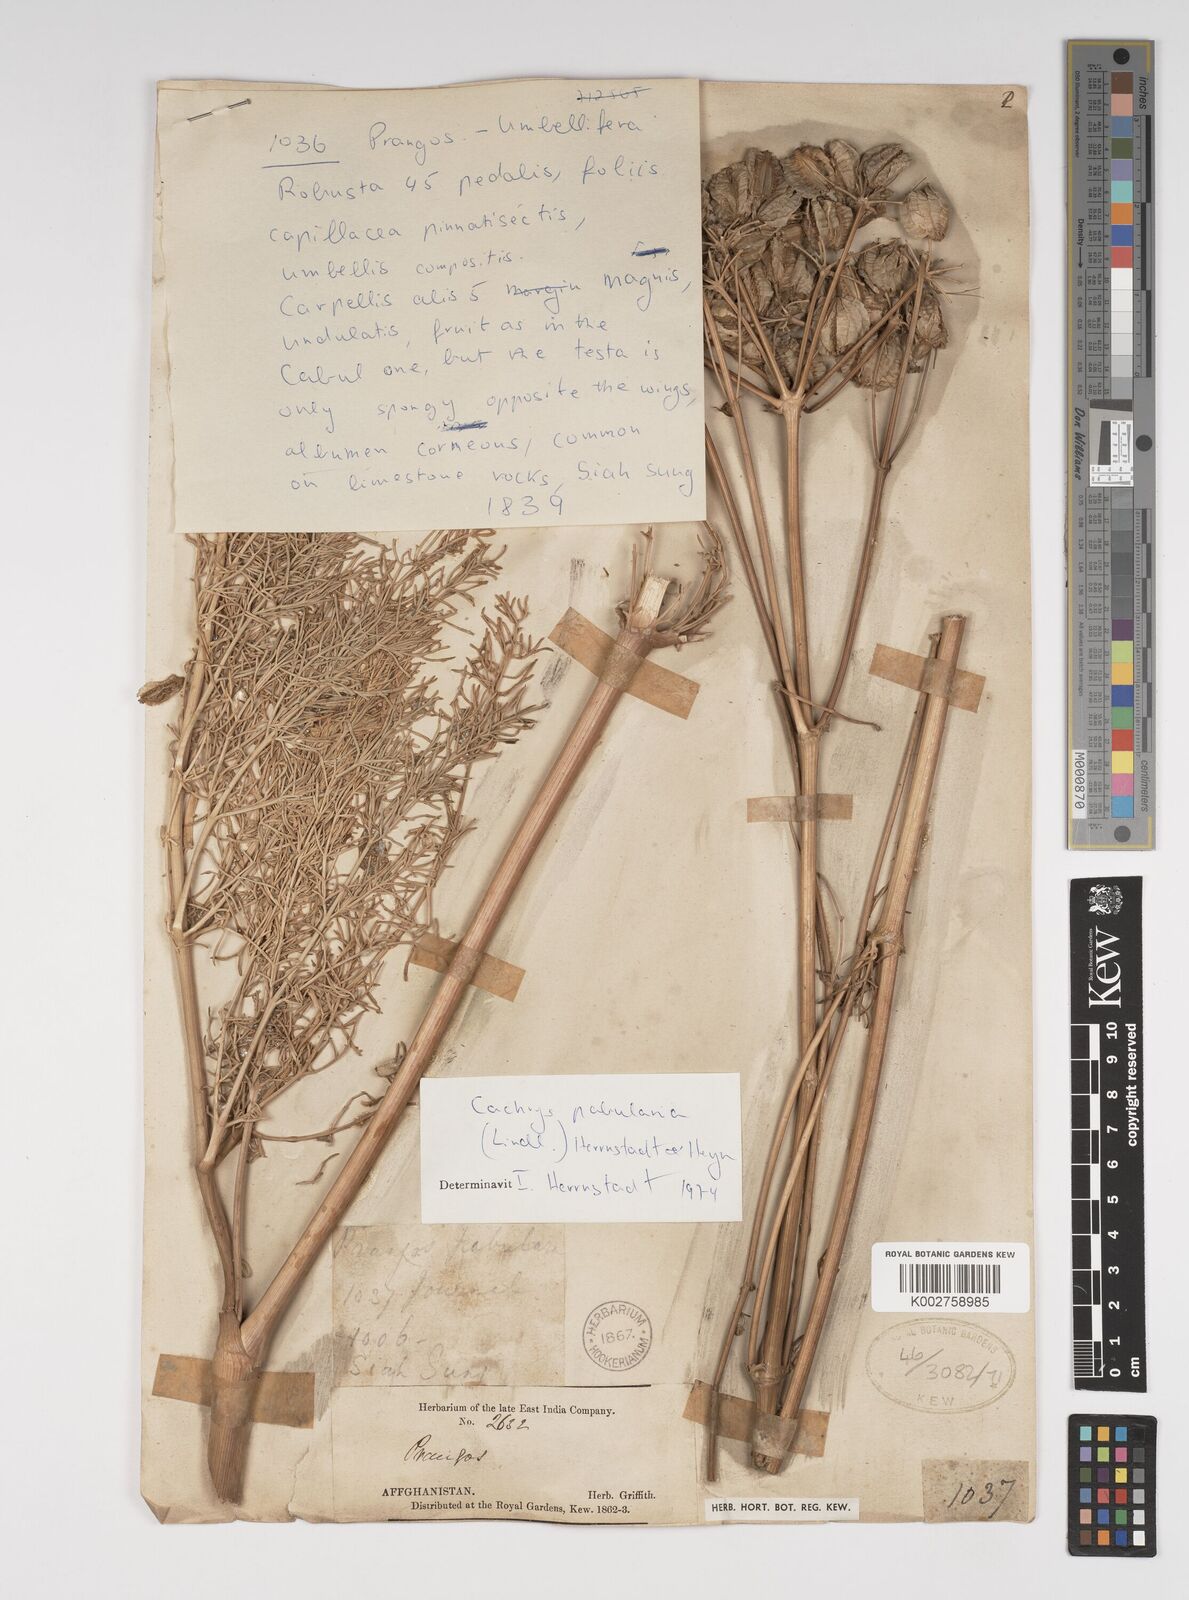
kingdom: Plantae
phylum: Tracheophyta
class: Magnoliopsida
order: Apiales
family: Apiaceae
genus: Prangos
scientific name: Prangos pabularia
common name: Yugan
